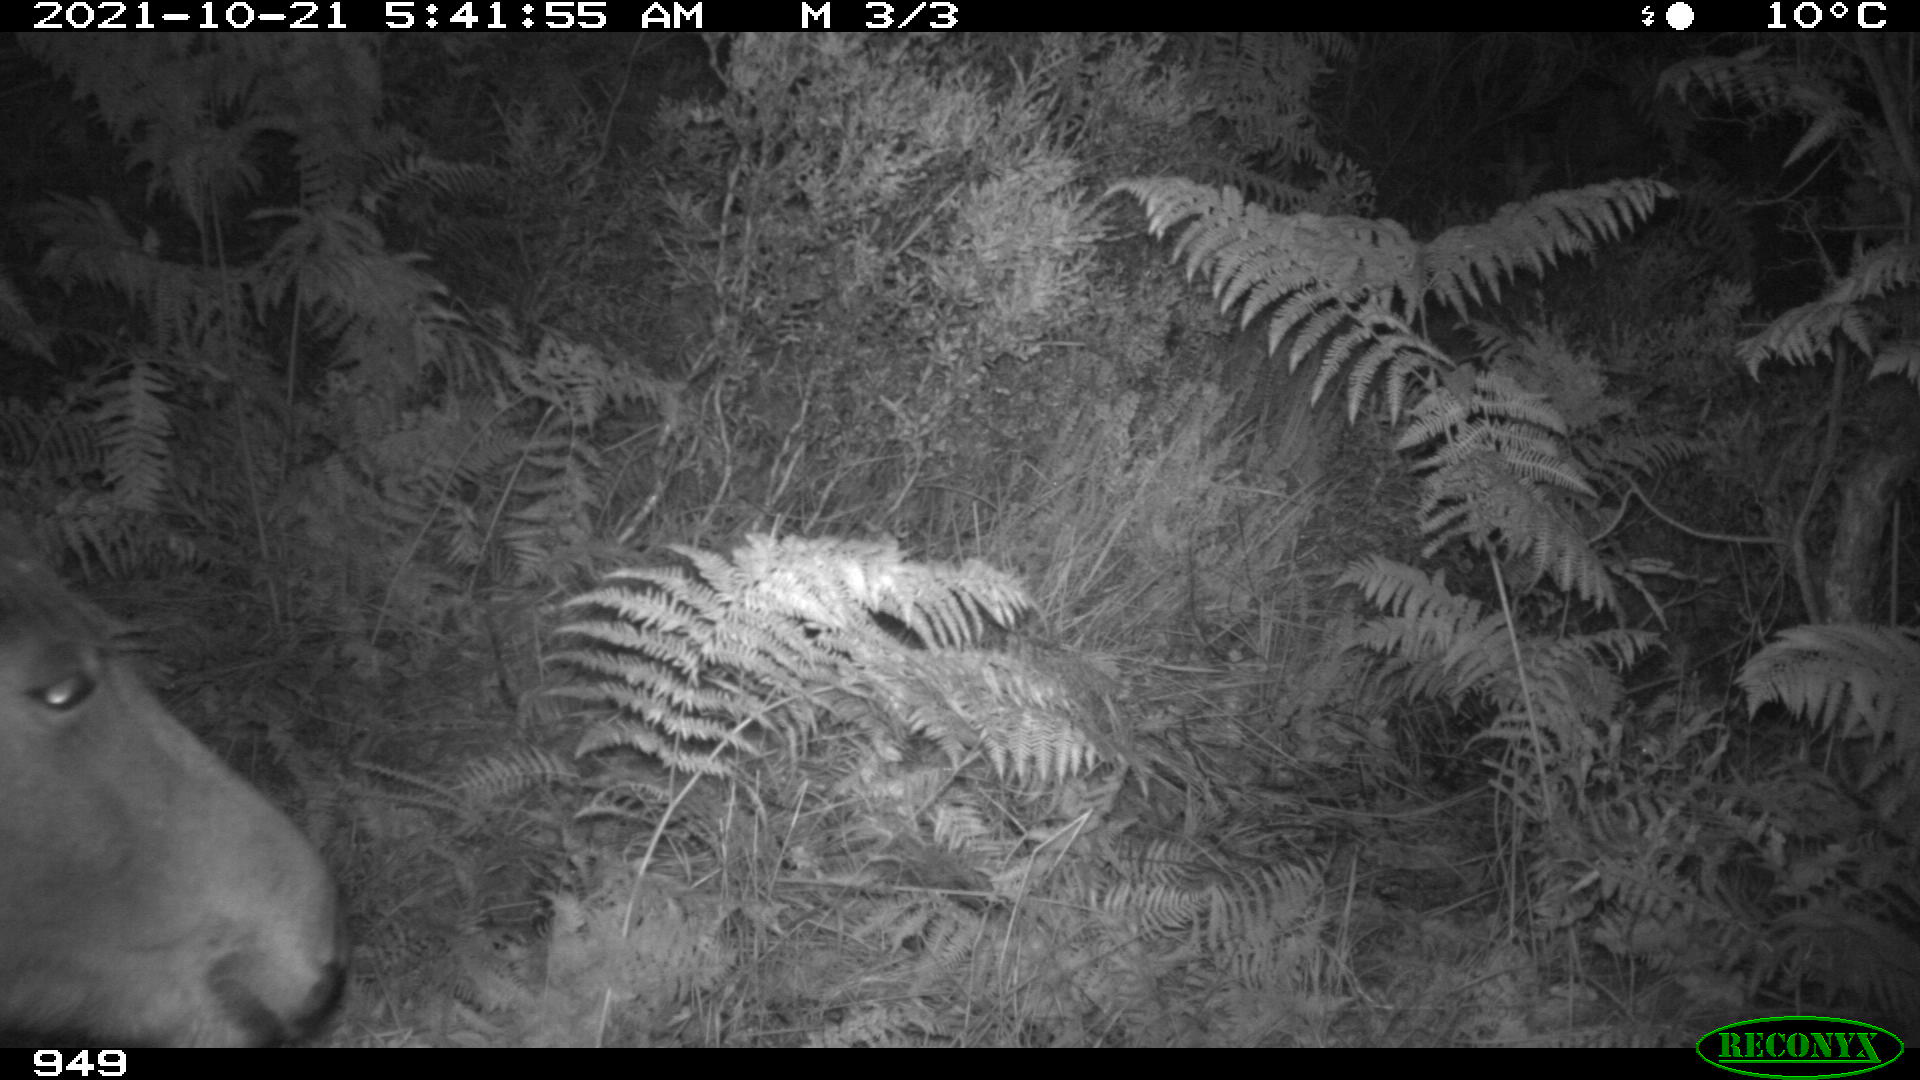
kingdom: Animalia
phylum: Chordata
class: Mammalia
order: Perissodactyla
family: Equidae
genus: Equus
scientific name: Equus caballus
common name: Horse
